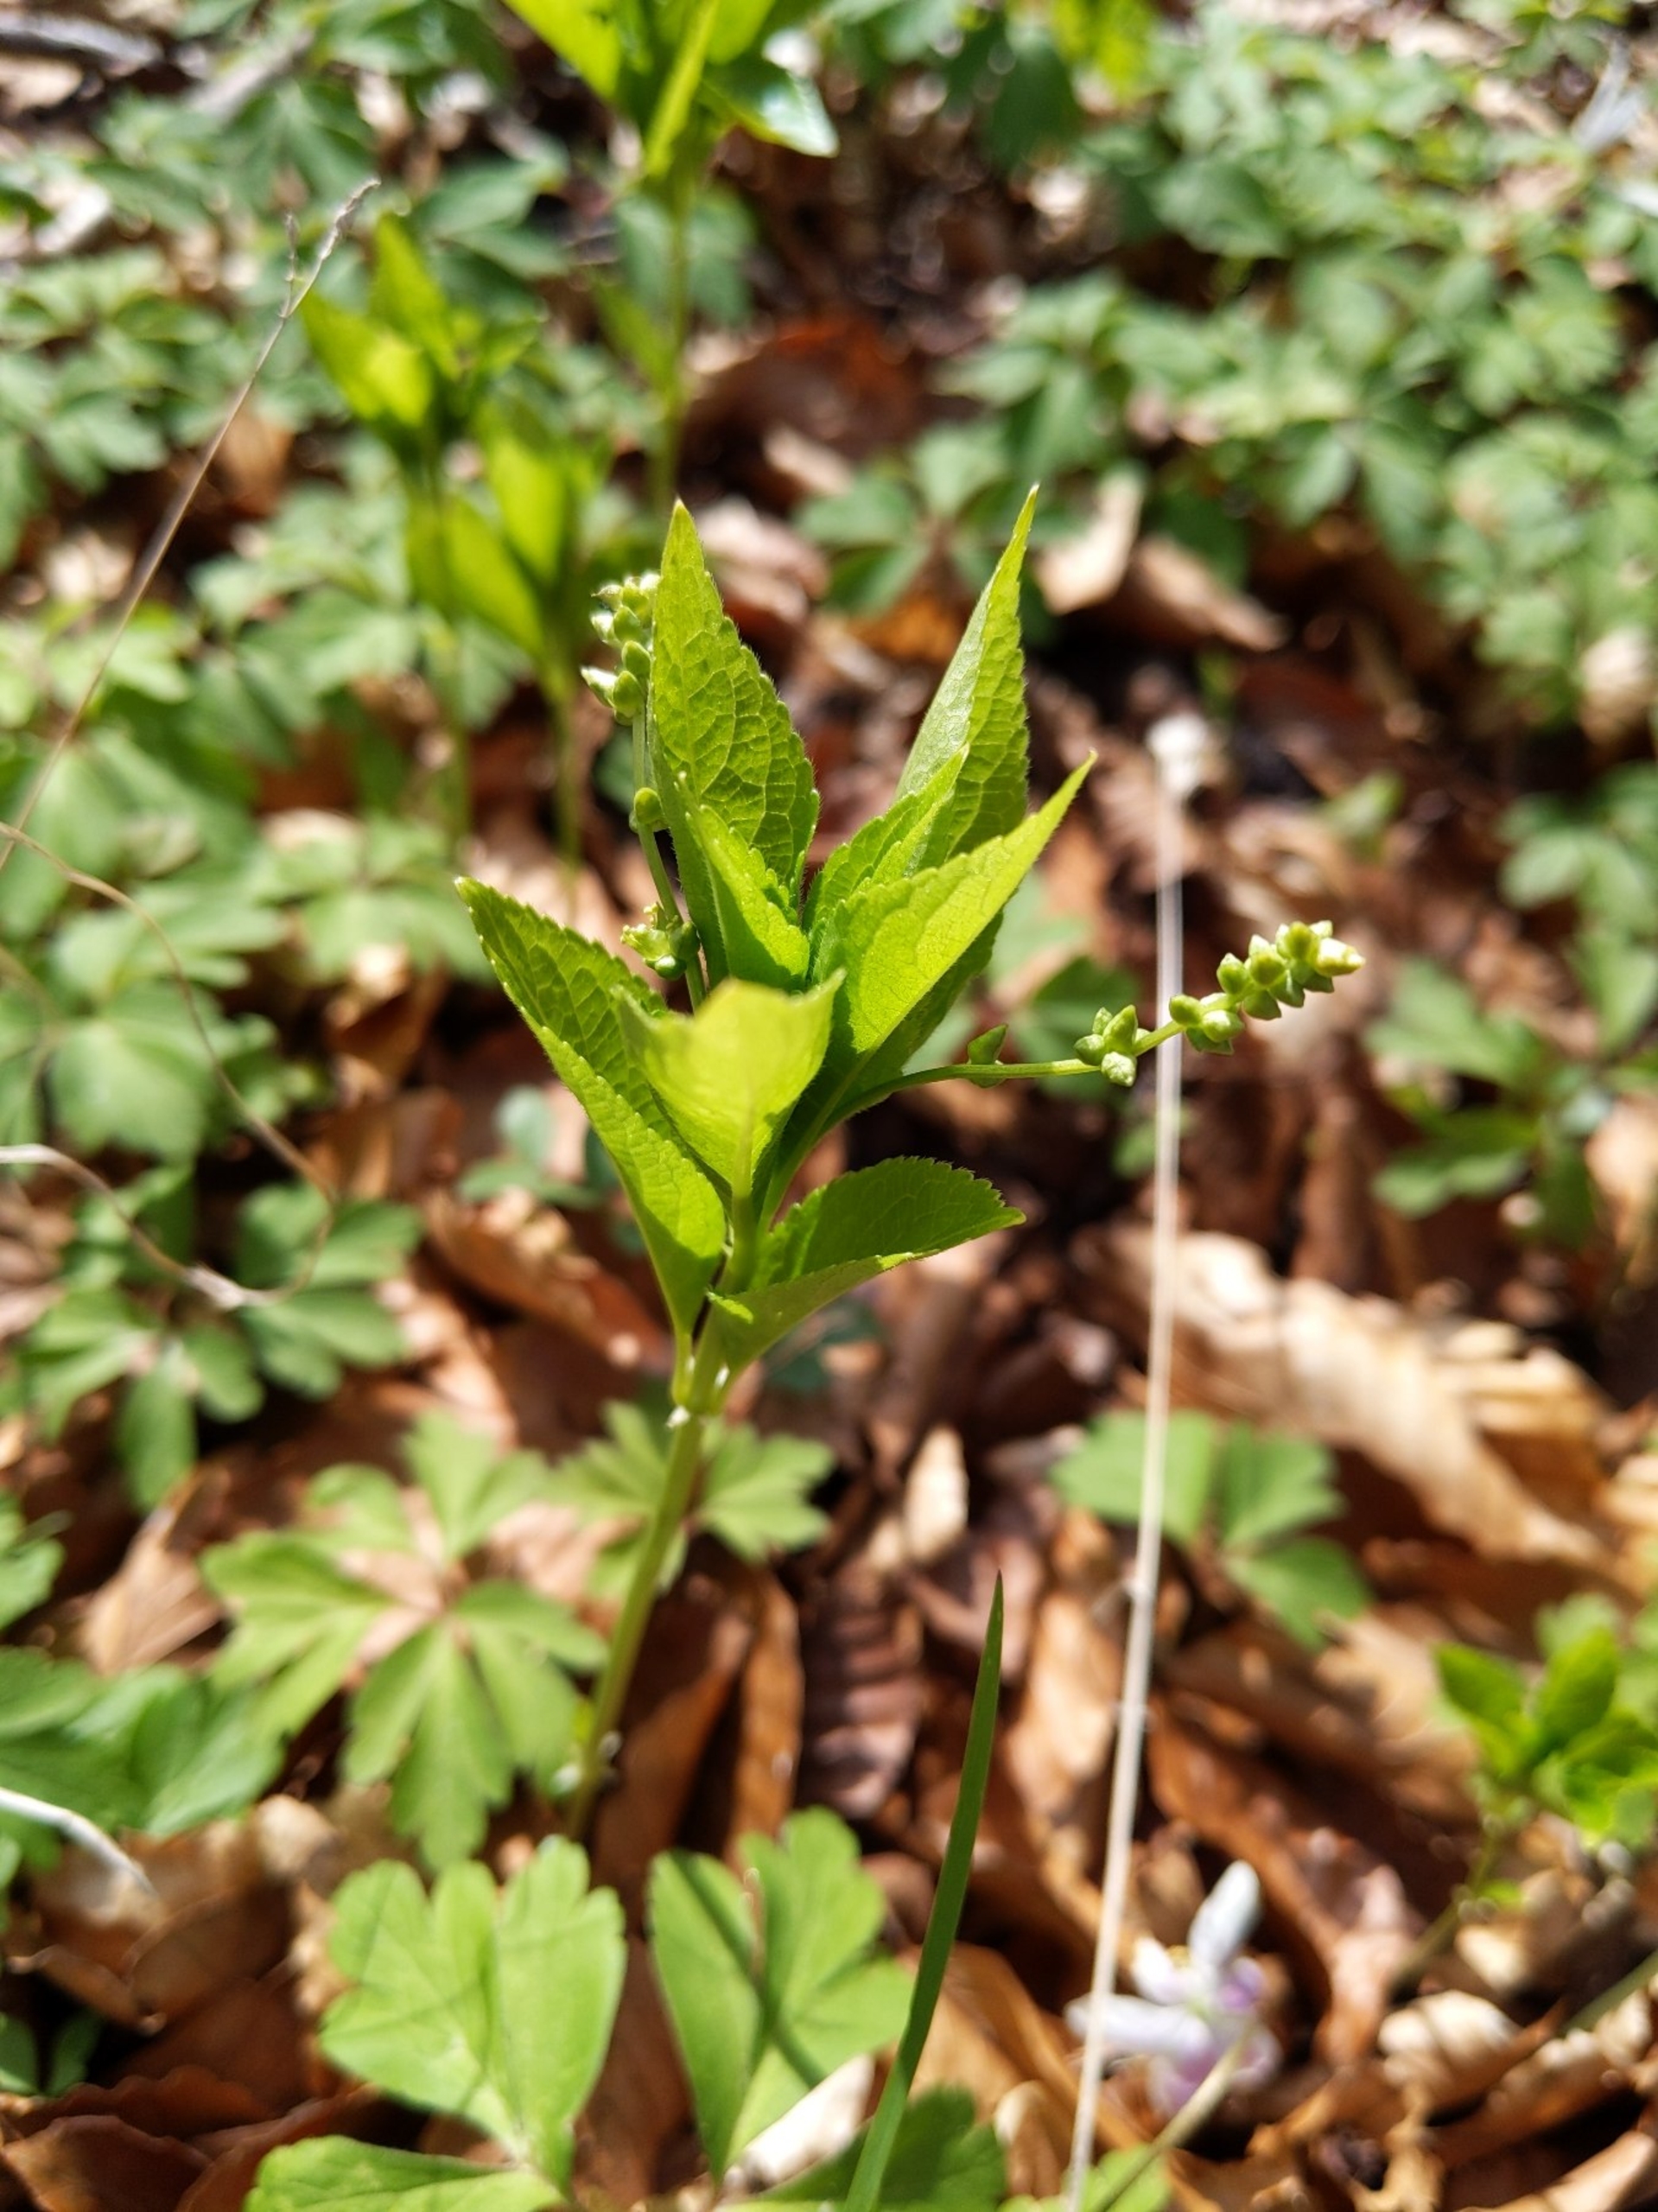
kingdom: Plantae
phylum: Tracheophyta
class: Magnoliopsida
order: Malpighiales
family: Euphorbiaceae
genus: Mercurialis
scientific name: Mercurialis perennis
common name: Almindelig bingelurt
